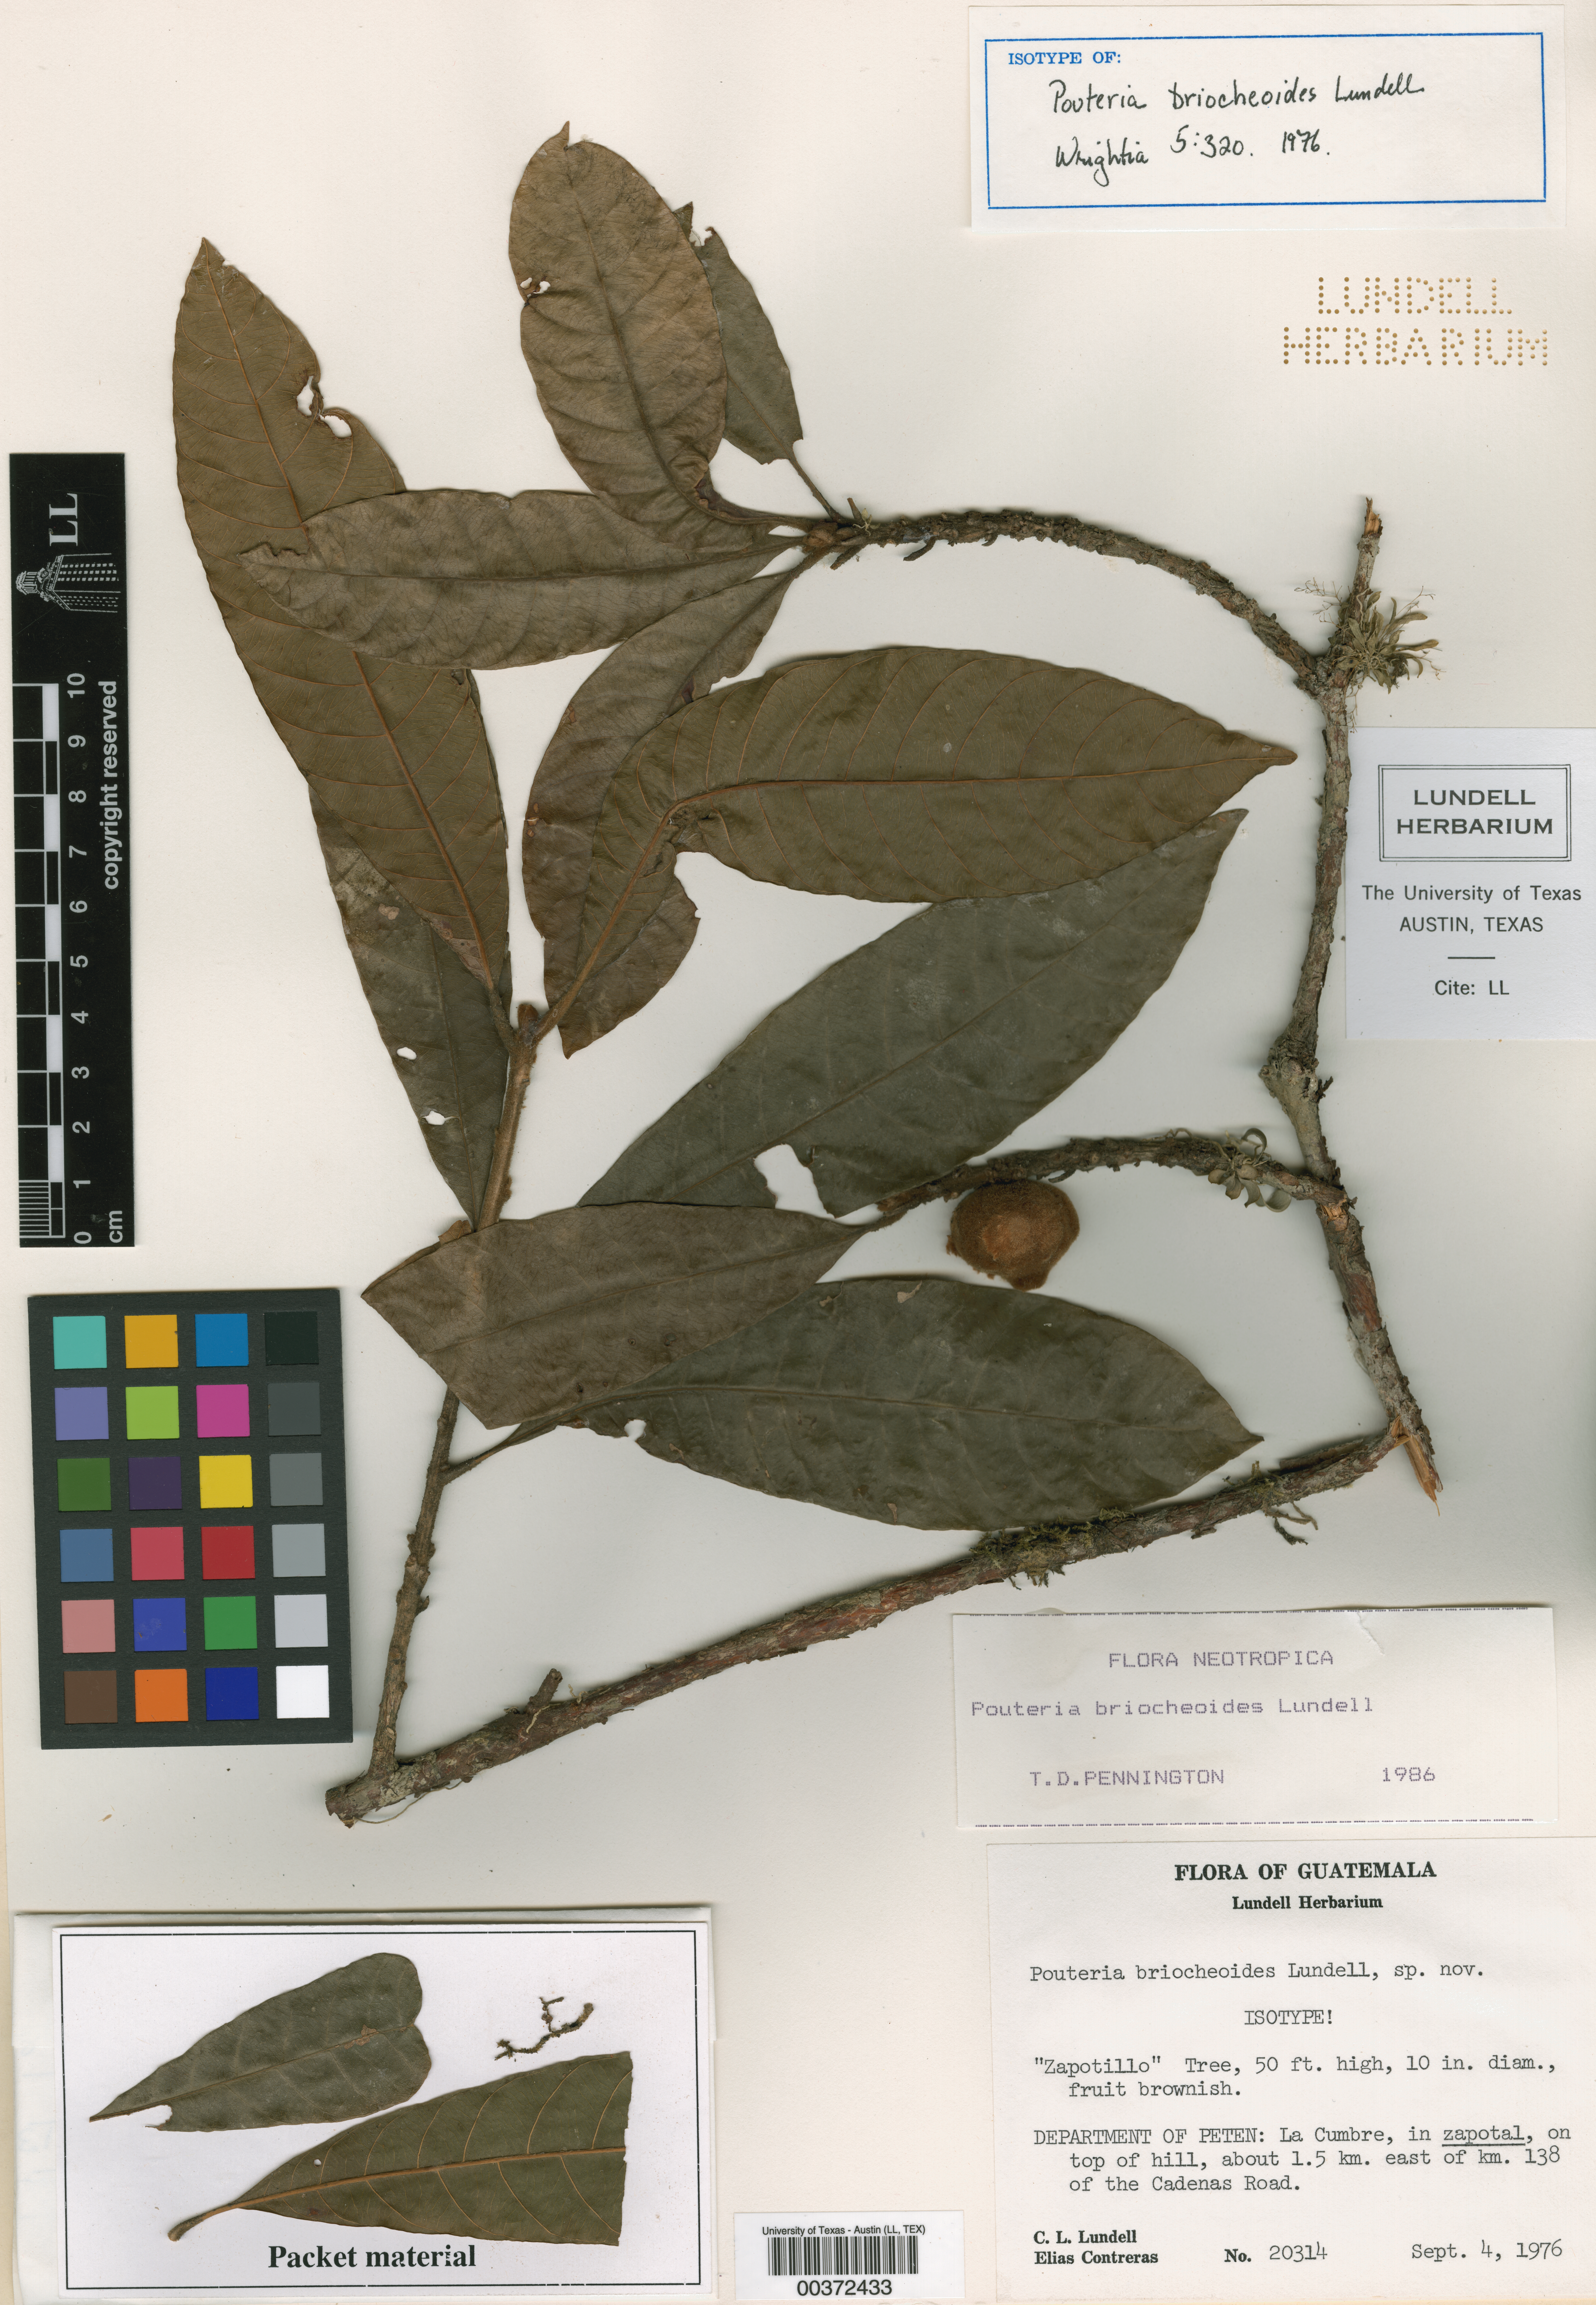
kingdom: Plantae
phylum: Tracheophyta
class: Magnoliopsida
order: Ericales
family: Sapotaceae
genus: Pouteria
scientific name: Pouteria briocheoides
